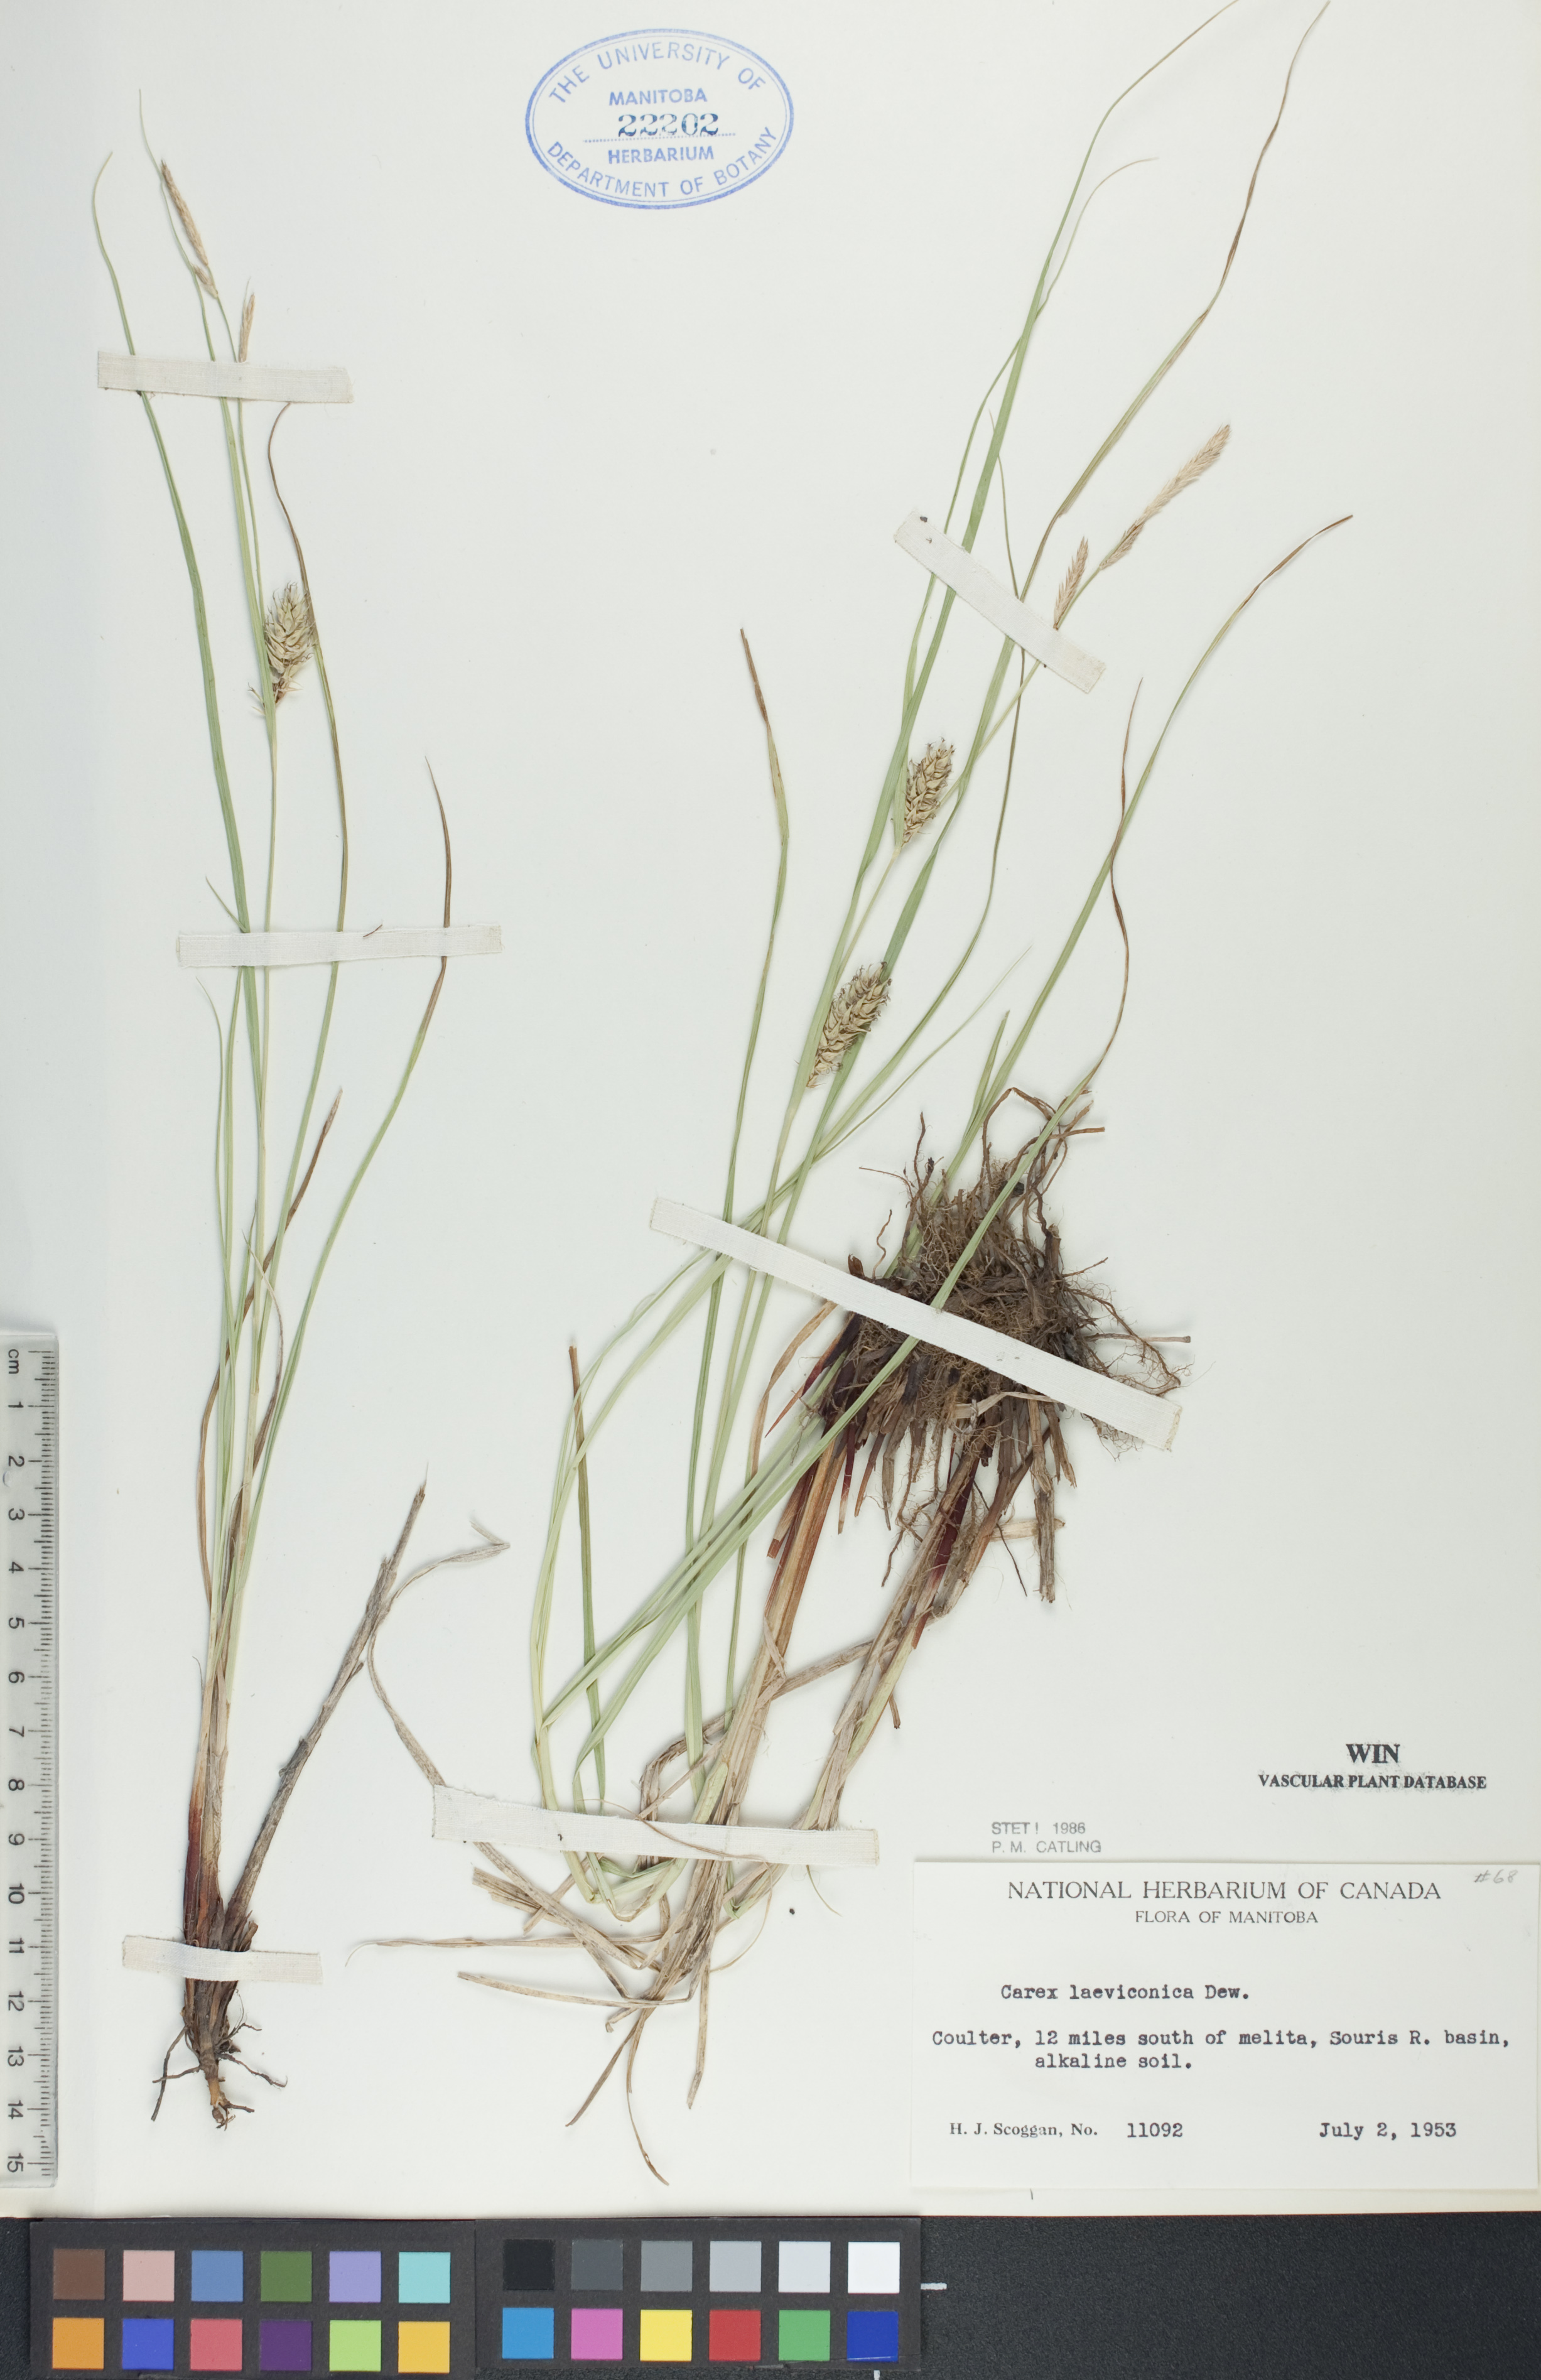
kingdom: Plantae
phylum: Tracheophyta
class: Liliopsida
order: Poales
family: Cyperaceae
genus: Carex
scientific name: Carex laeviconica
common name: Plains slough sedge
